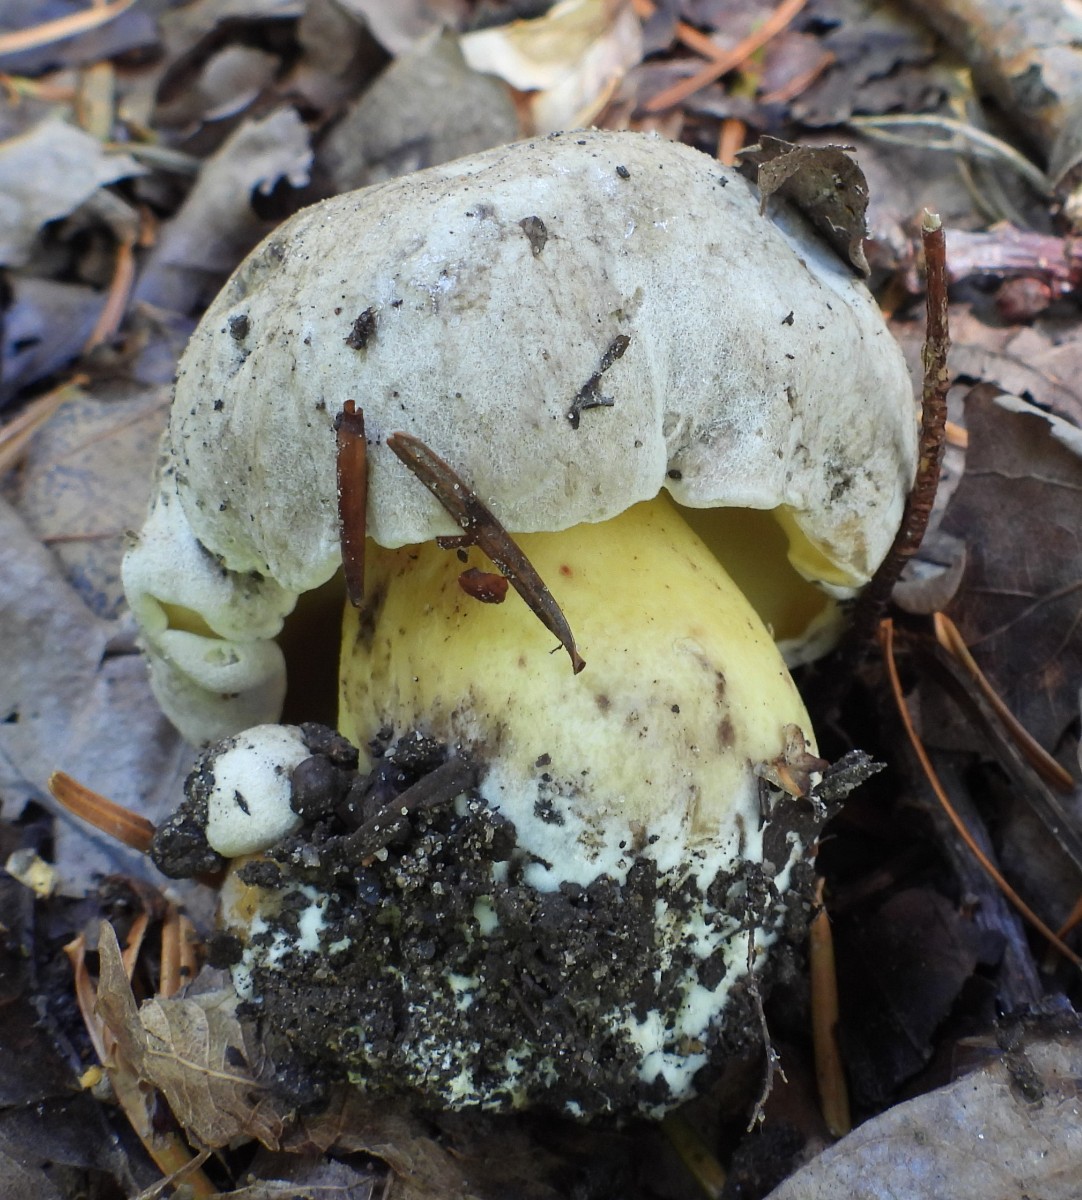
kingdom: Fungi
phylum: Basidiomycota
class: Agaricomycetes
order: Boletales
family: Boletaceae
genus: Caloboletus
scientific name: Caloboletus radicans
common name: rod-rørhat
